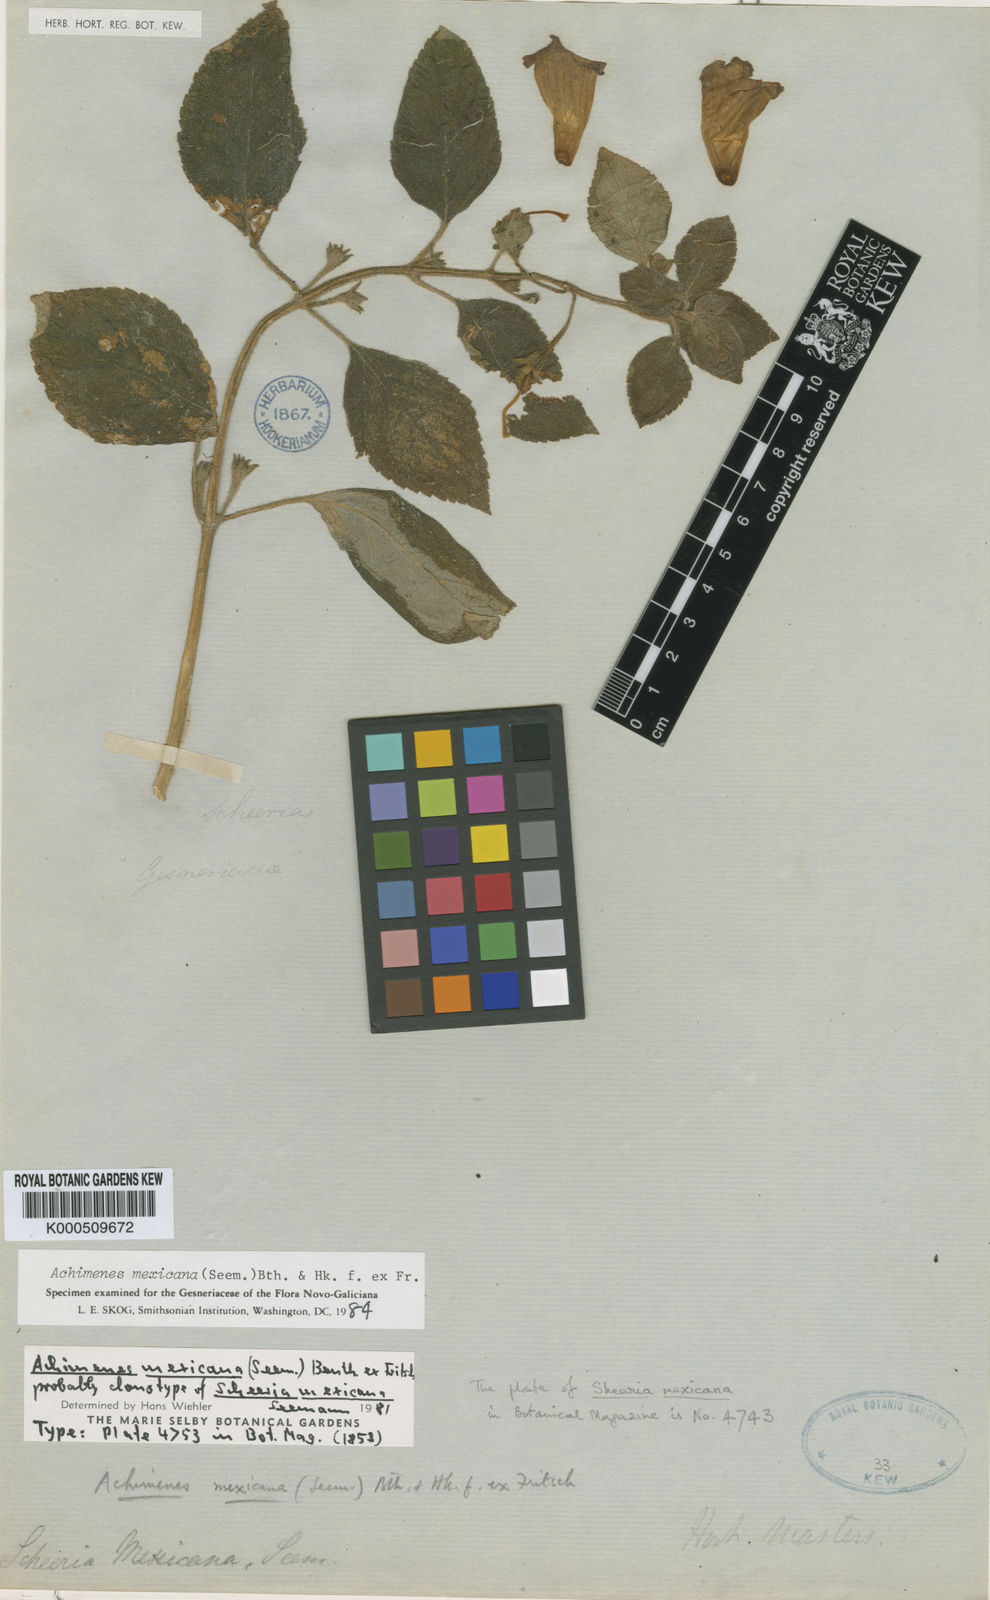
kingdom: Plantae
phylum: Tracheophyta
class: Magnoliopsida
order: Lamiales
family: Gesneriaceae
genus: Achimenes
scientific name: Achimenes mexicana
